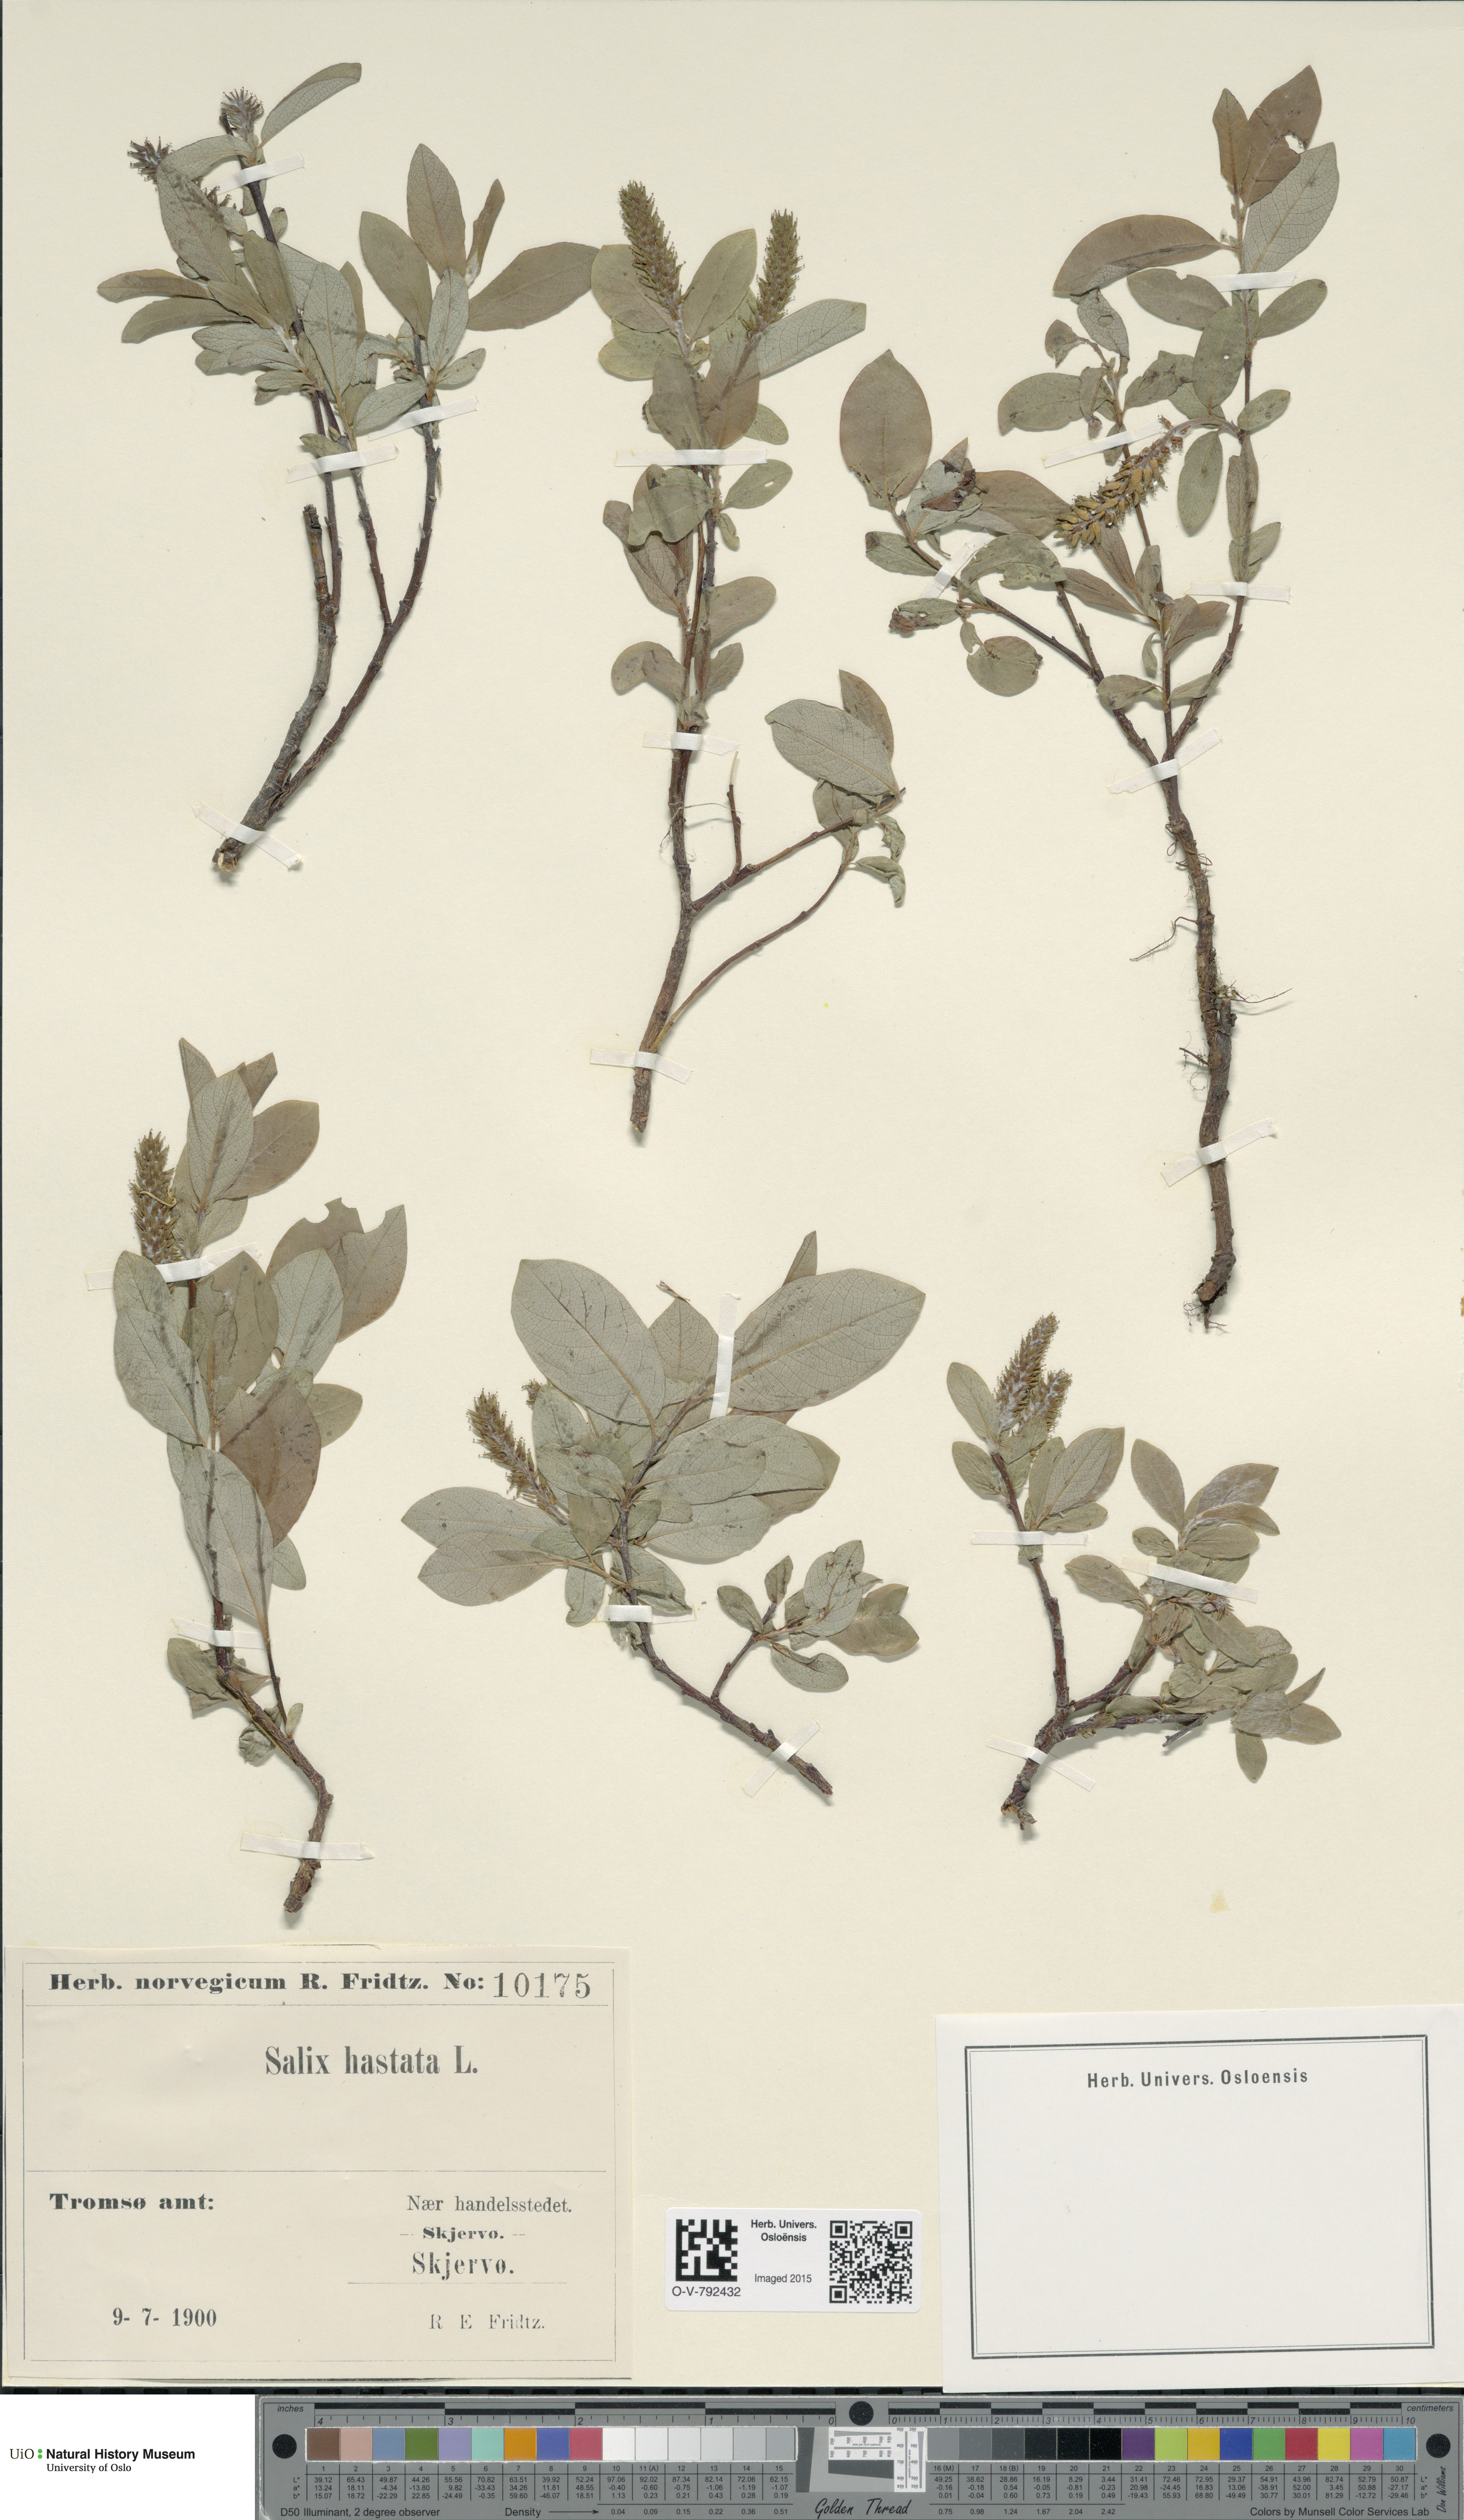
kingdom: Plantae
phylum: Tracheophyta
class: Magnoliopsida
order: Malpighiales
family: Salicaceae
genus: Salix
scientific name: Salix hastata
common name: Halberd willow
